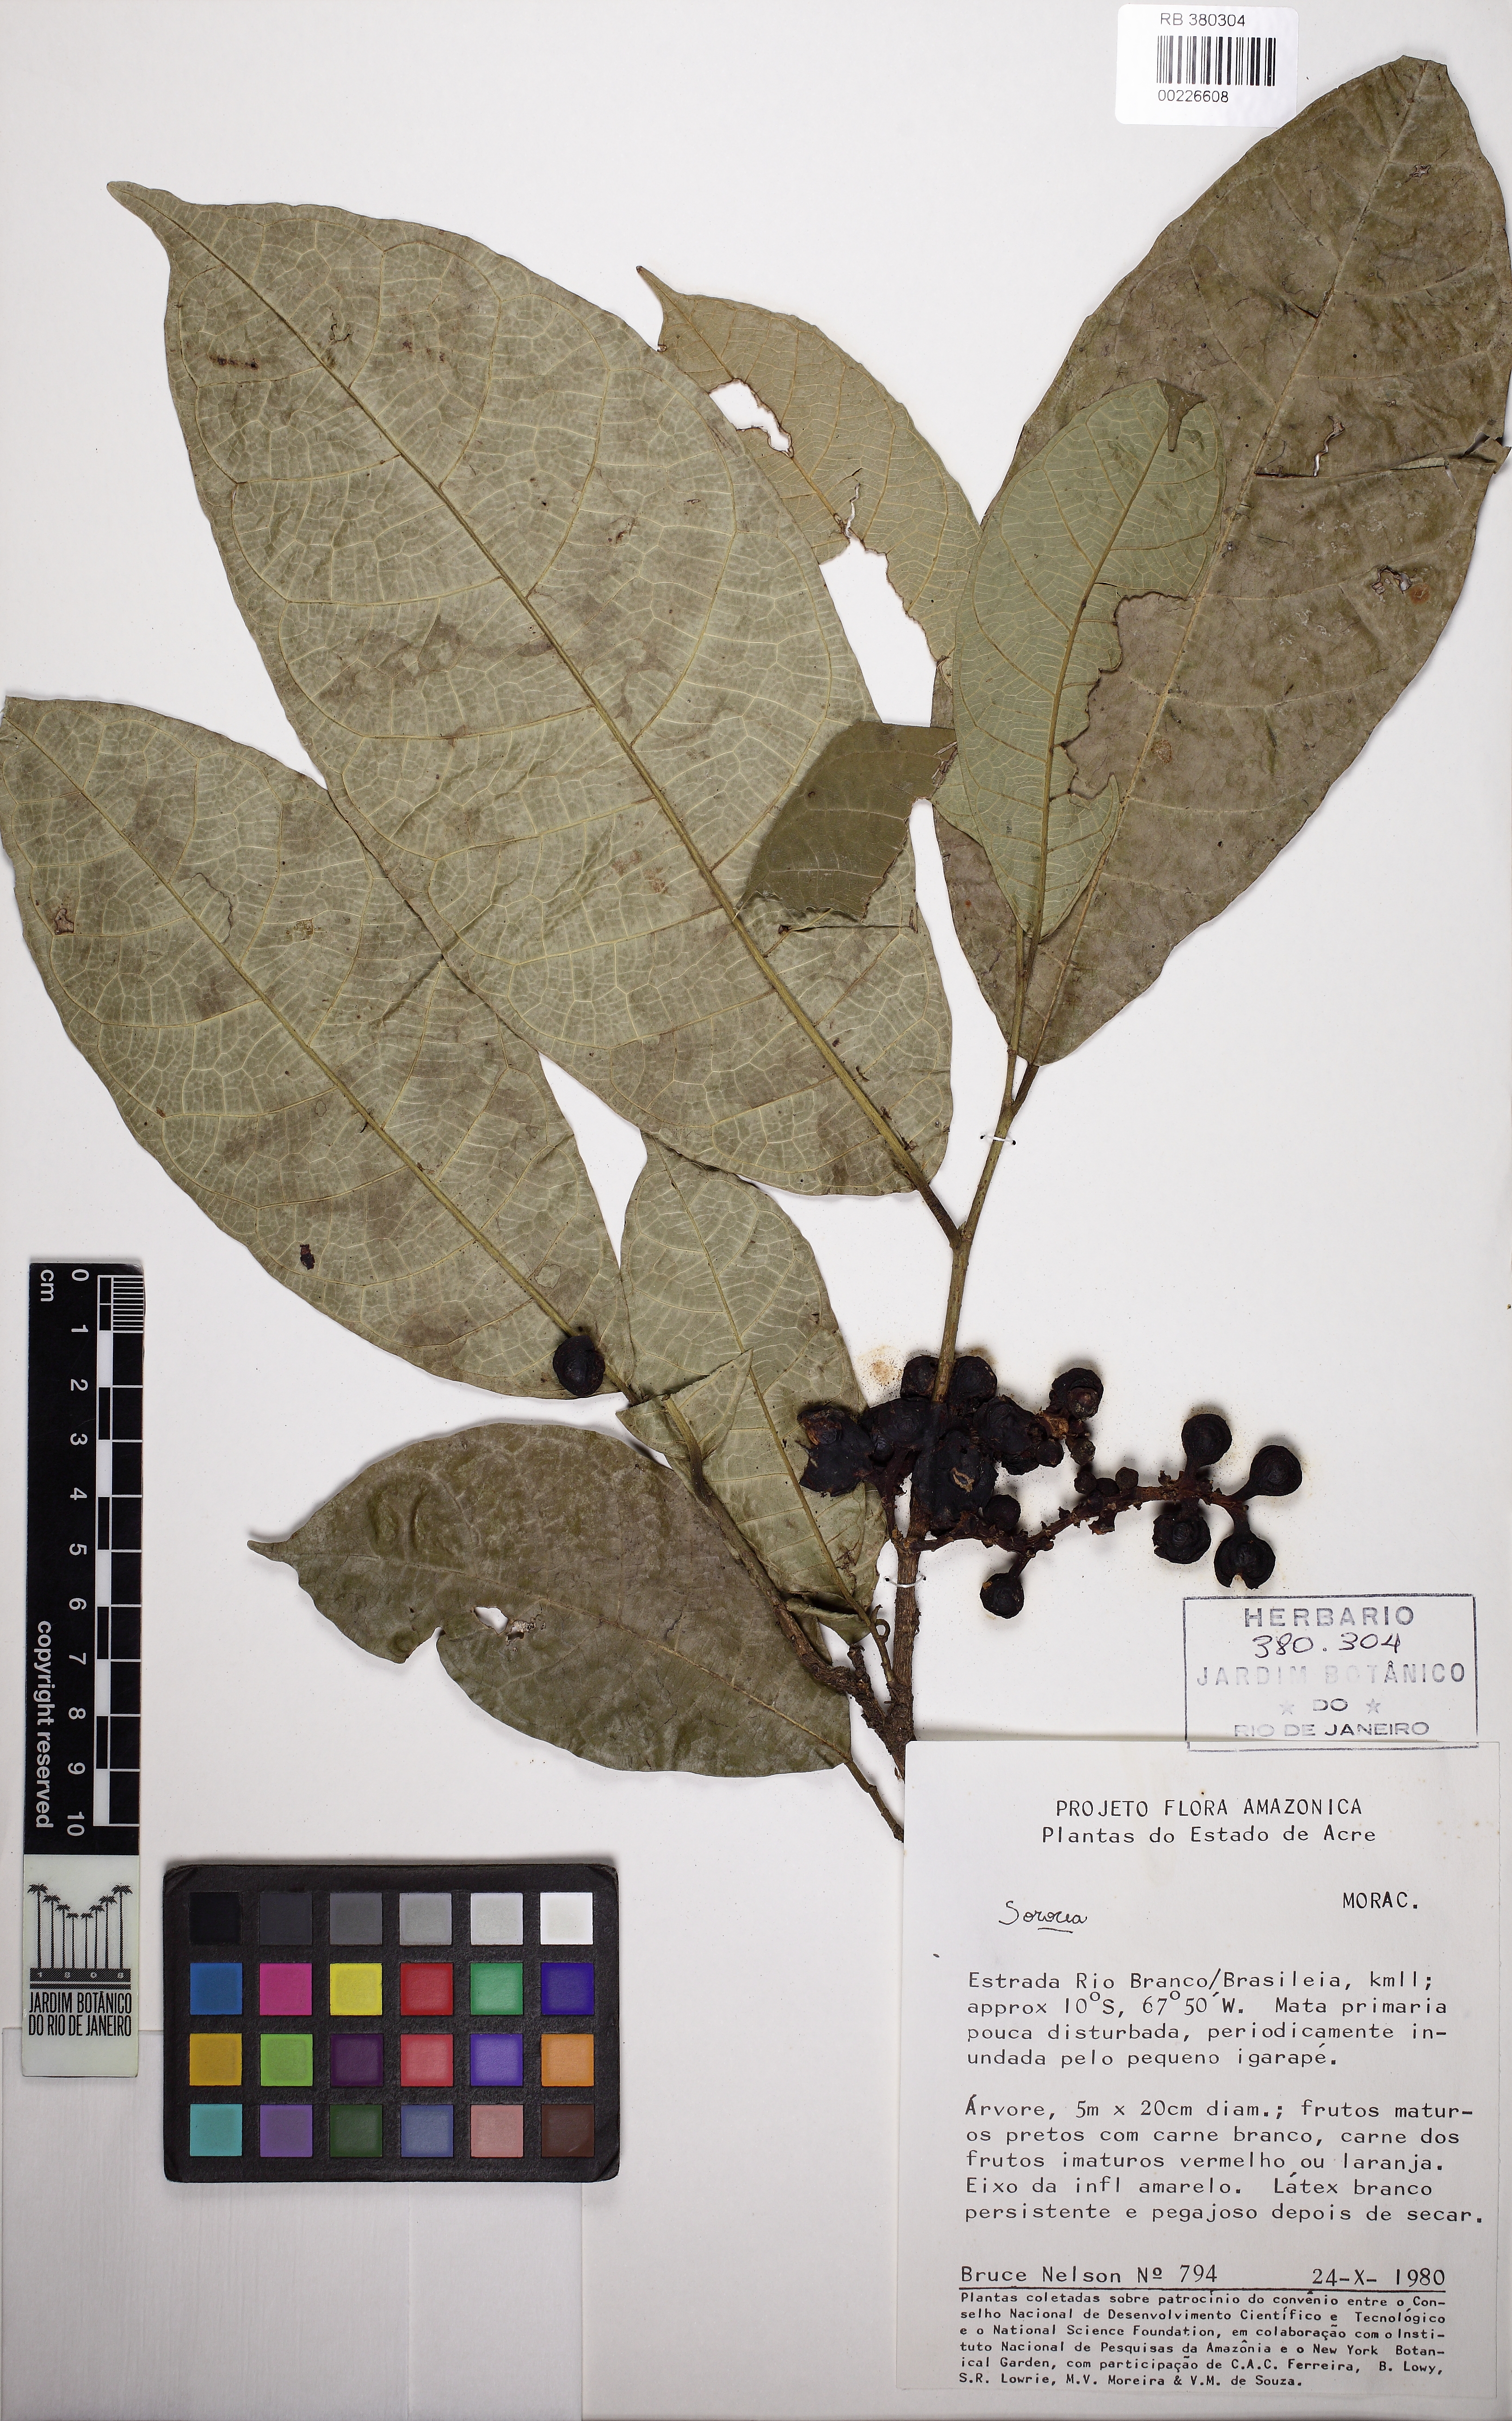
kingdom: Plantae
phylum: Tracheophyta
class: Magnoliopsida
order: Rosales
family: Moraceae
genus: Sorocea
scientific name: Sorocea
